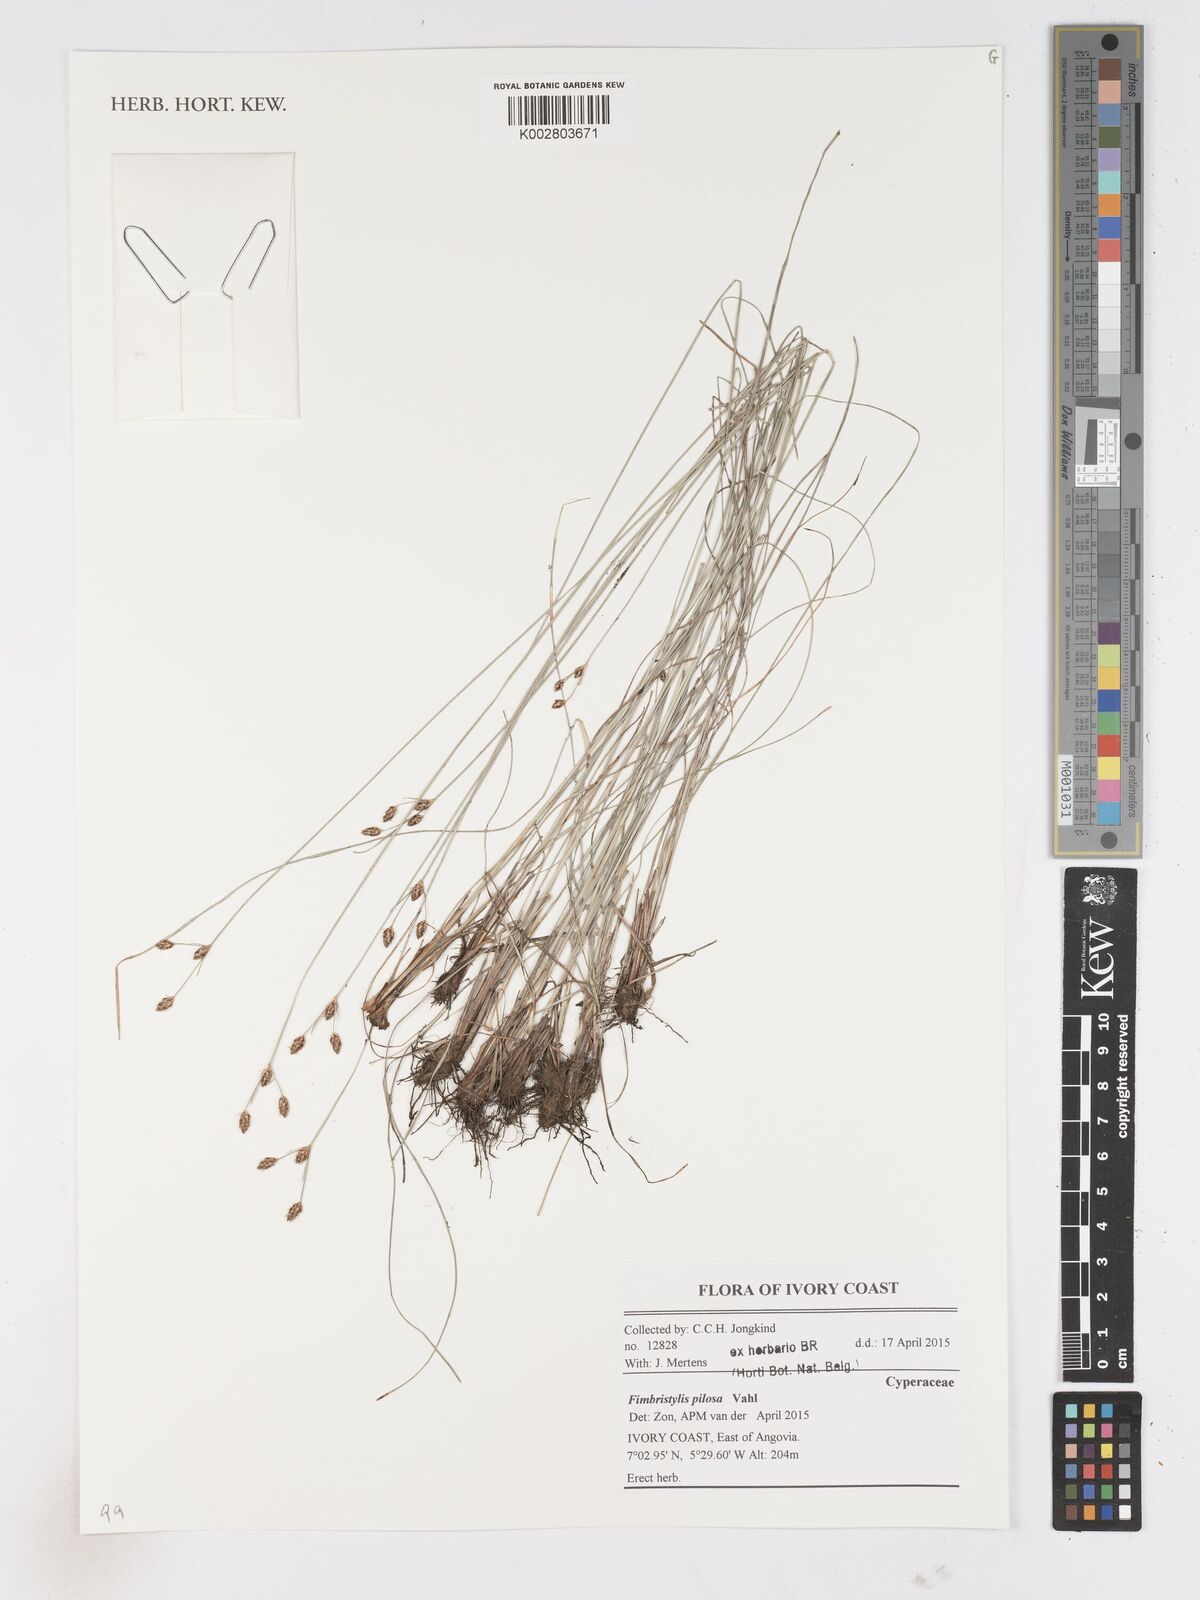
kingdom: Plantae
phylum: Tracheophyta
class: Liliopsida
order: Poales
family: Cyperaceae
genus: Fimbristylis
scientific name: Fimbristylis pilosa
